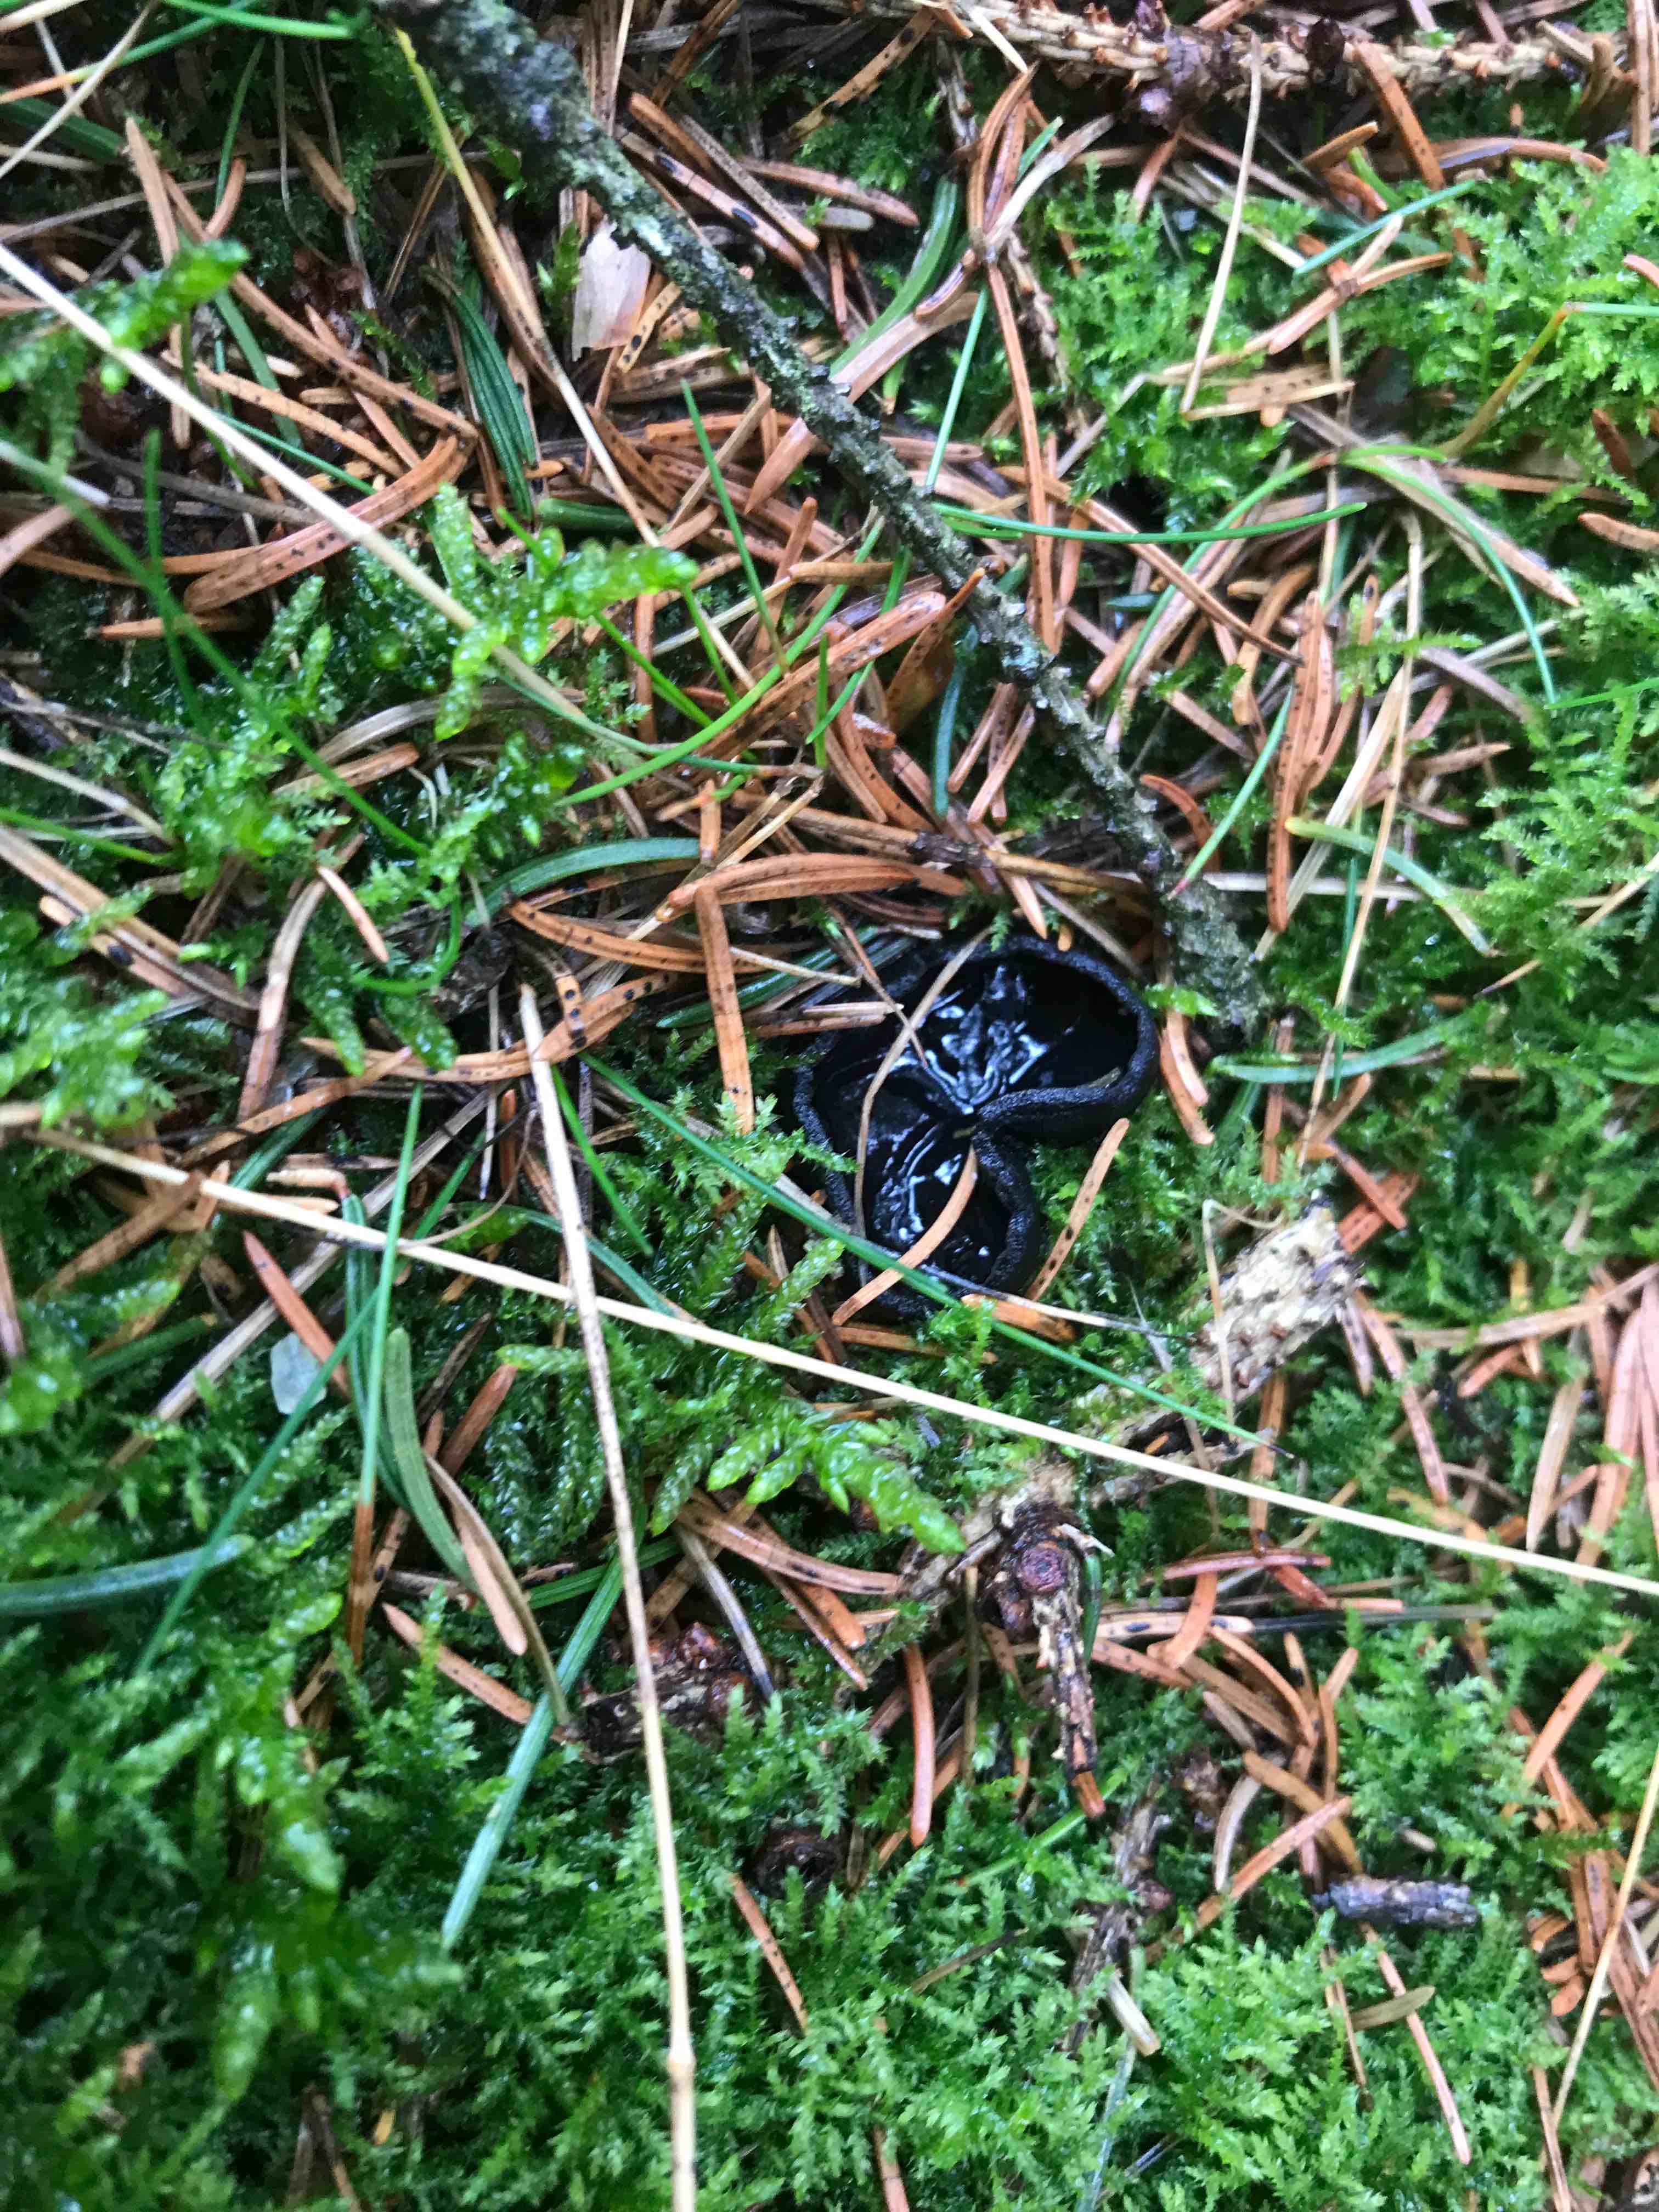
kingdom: Fungi
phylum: Ascomycota
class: Pezizomycetes
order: Pezizales
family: Sarcosomataceae
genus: Pseudoplectania
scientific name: Pseudoplectania nigrella
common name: almindelig sortbæger
